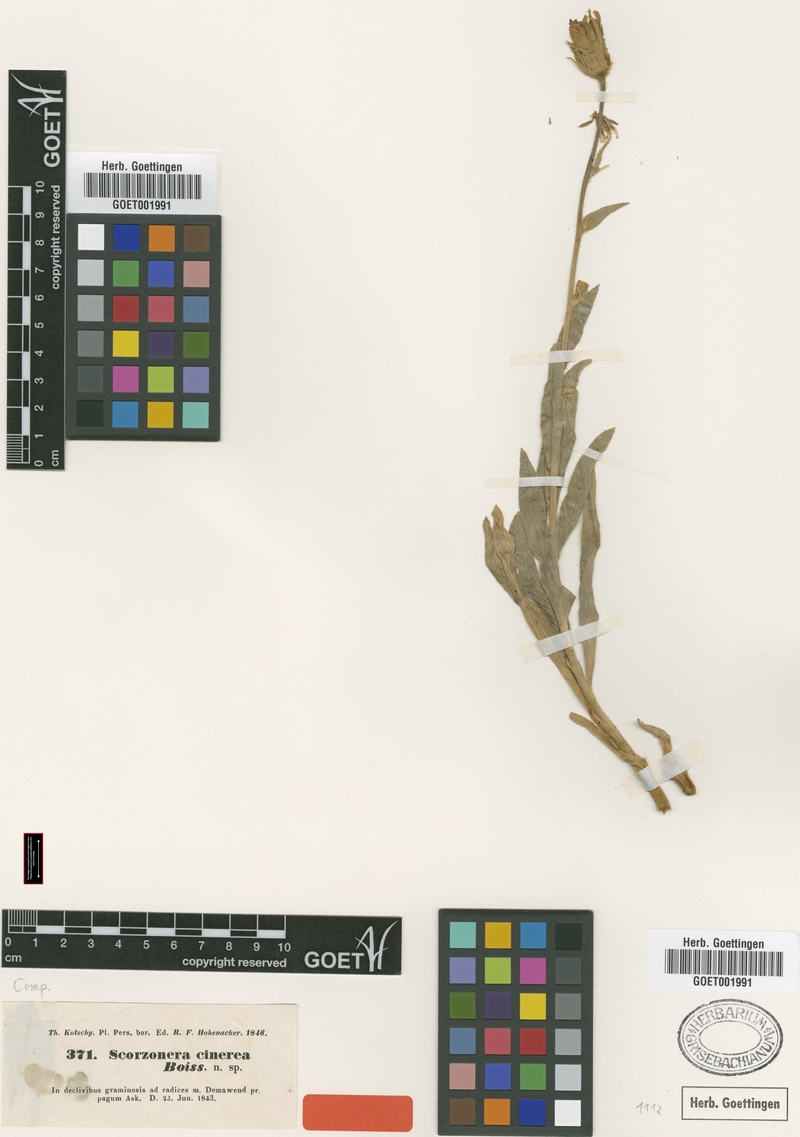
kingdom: Plantae
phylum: Tracheophyta
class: Magnoliopsida
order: Asterales
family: Asteraceae
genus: Cigdemia
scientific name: Cigdemia cinerea
